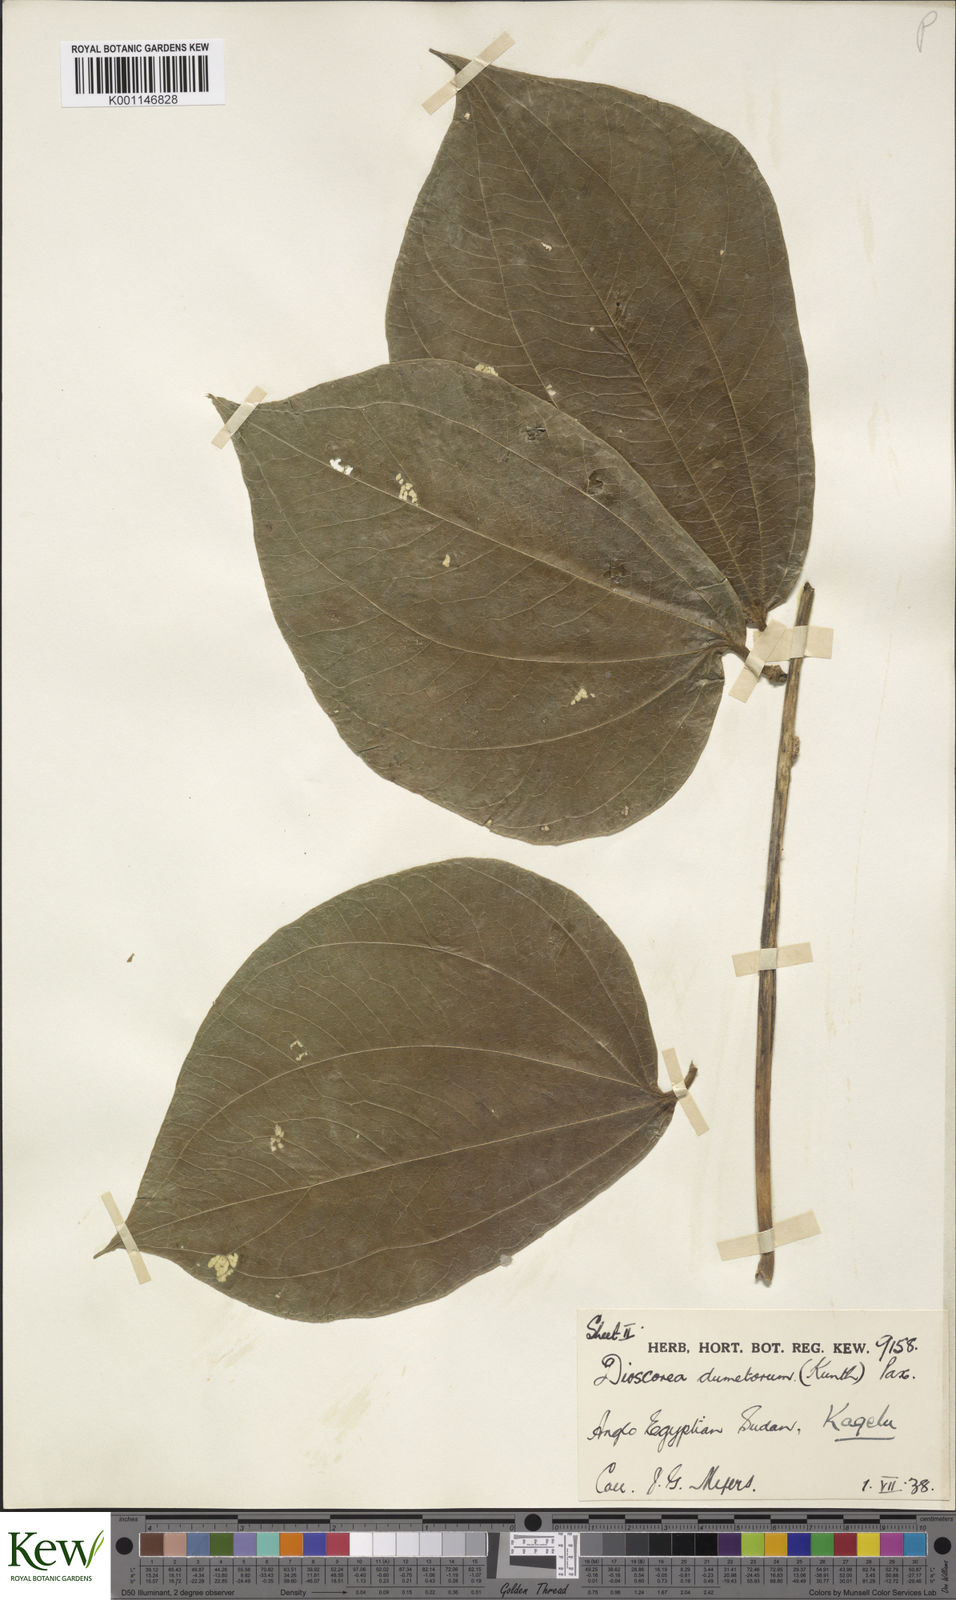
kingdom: Plantae
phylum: Tracheophyta
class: Liliopsida
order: Dioscoreales
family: Dioscoreaceae
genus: Dioscorea
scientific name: Dioscorea dumetorum
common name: African bitter yam
